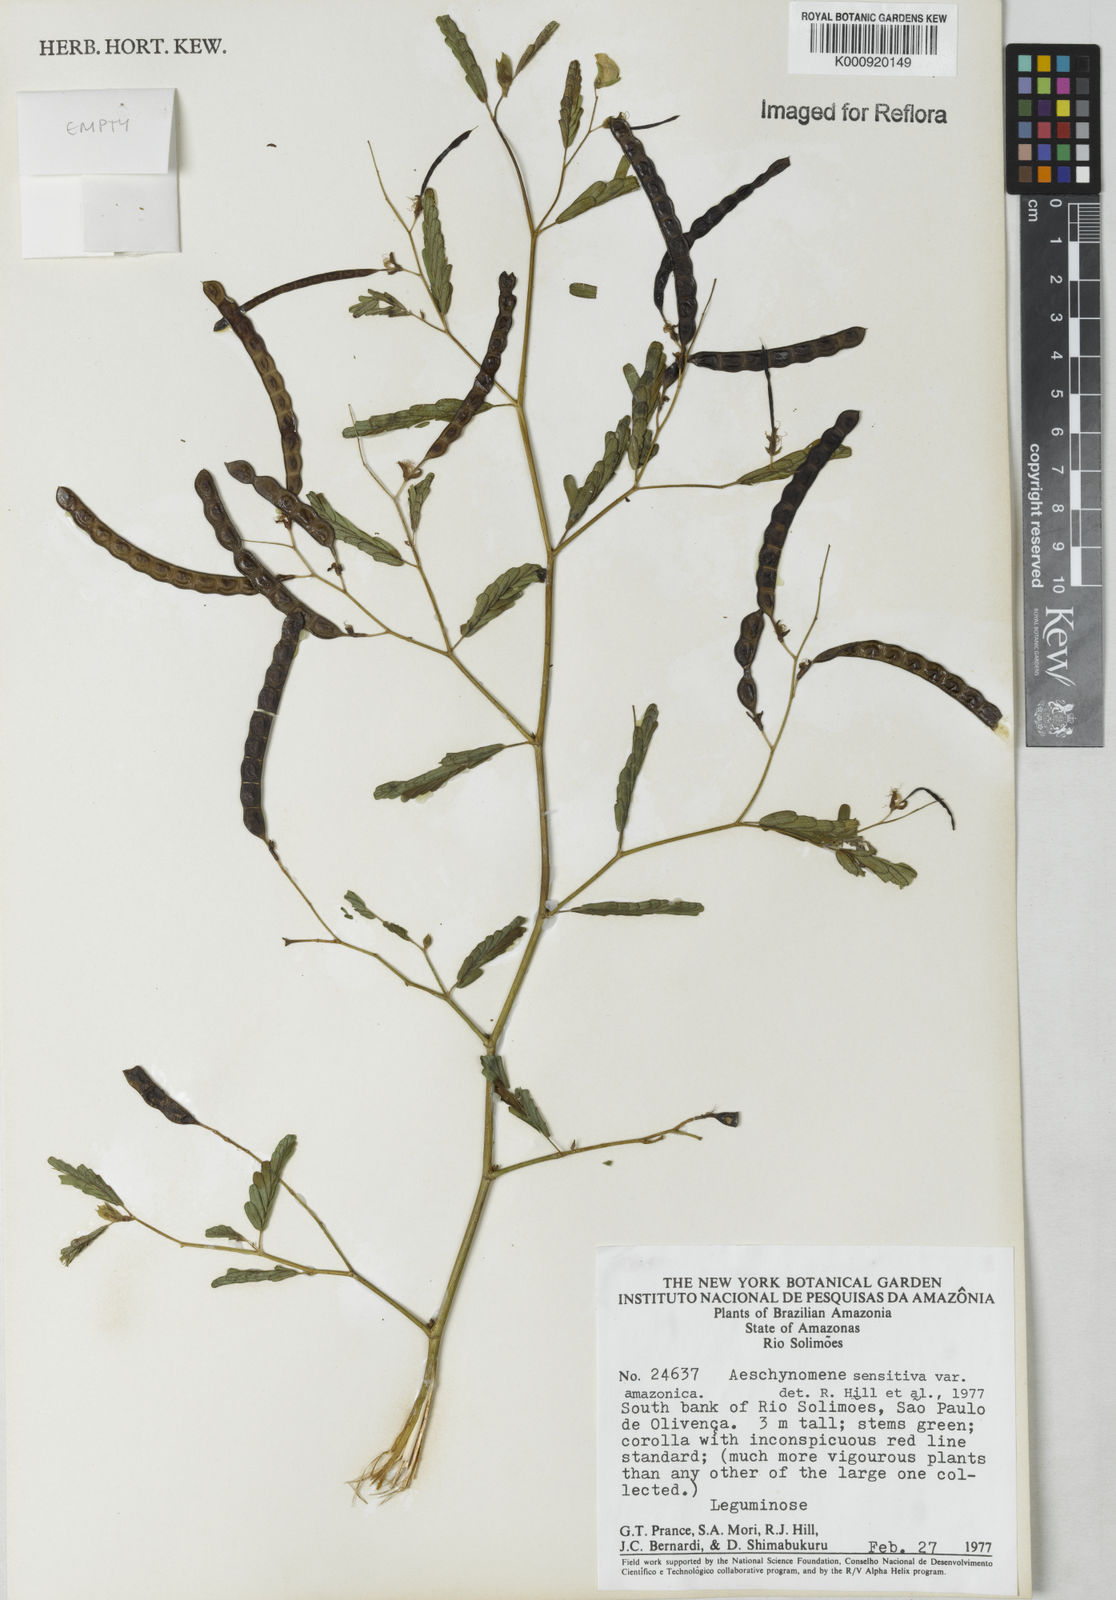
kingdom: Plantae
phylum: Tracheophyta
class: Magnoliopsida
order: Fabales
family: Fabaceae
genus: Aeschynomene
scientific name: Aeschynomene sensitiva
